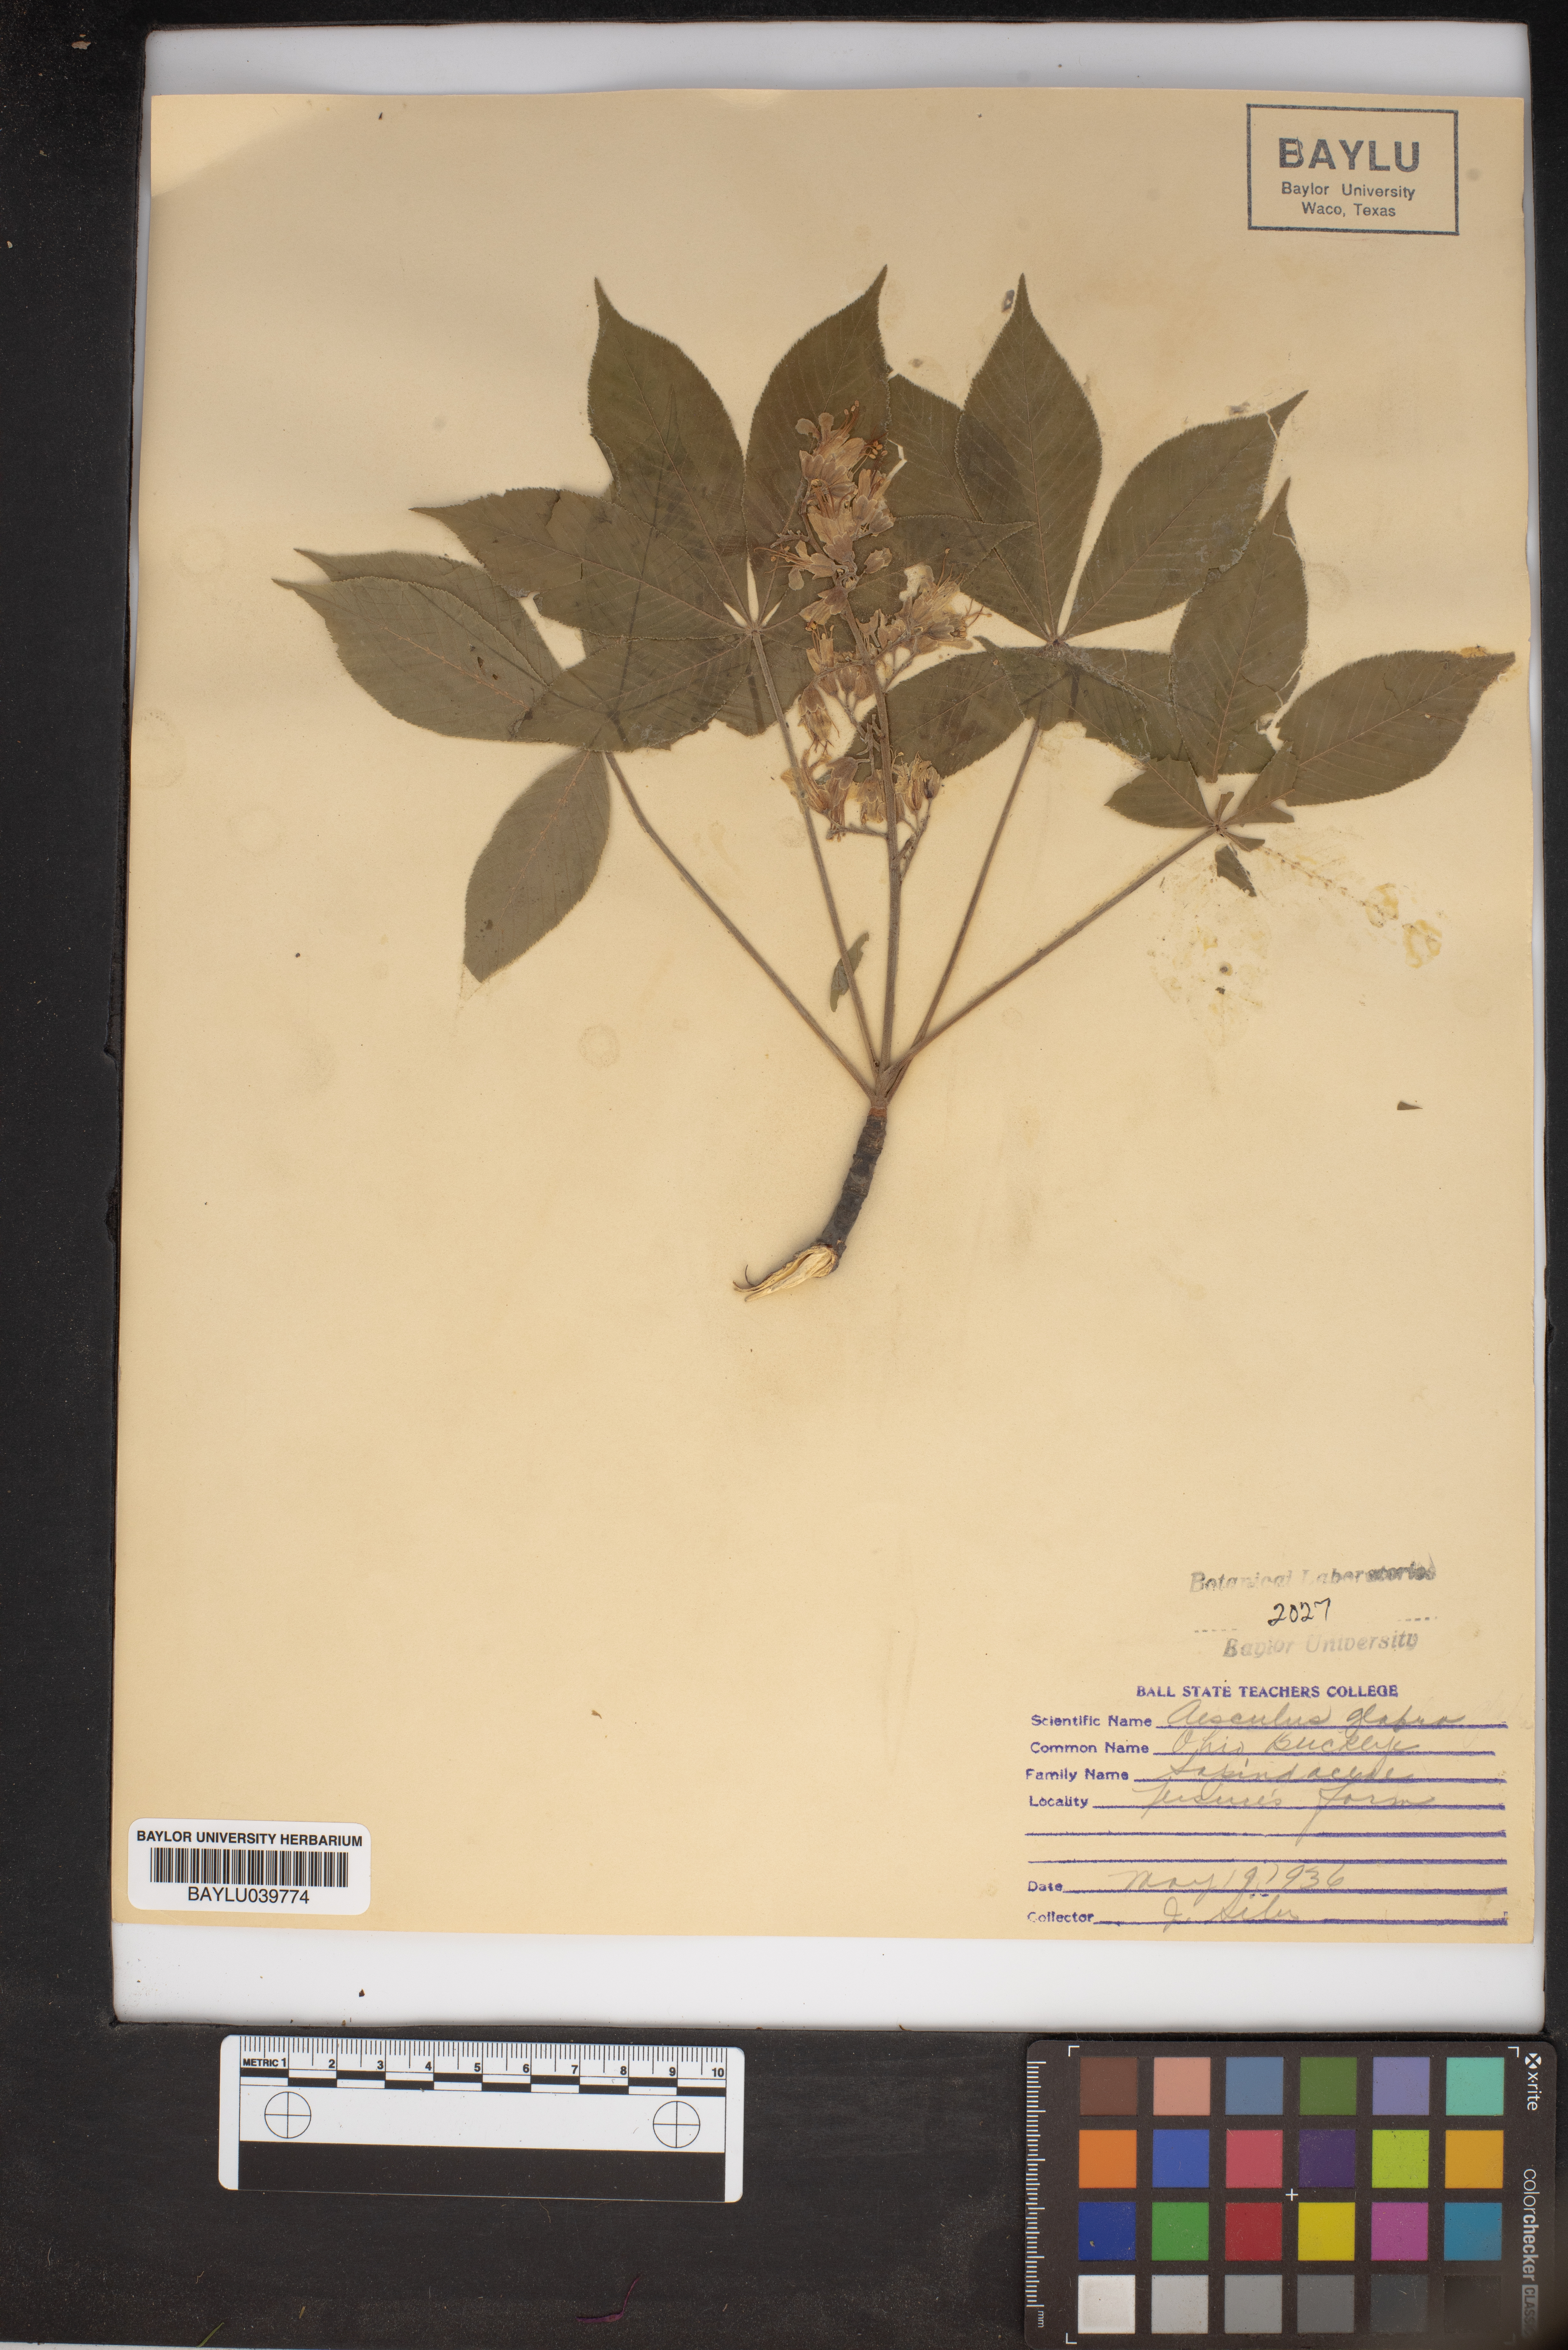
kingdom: Plantae
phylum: Tracheophyta
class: Magnoliopsida
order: Sapindales
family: Sapindaceae
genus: Aesculus
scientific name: Aesculus glabra
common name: Ohio buckeye
